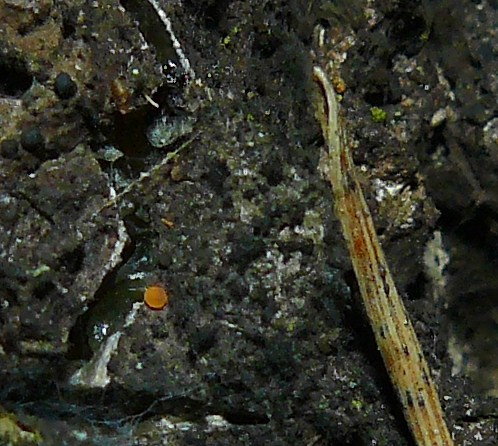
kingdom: Fungi
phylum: Ascomycota
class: Sareomycetes
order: Sareales
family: Sareaceae
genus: Sarea
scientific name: Sarea resinae
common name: orangegul harpiksskive
